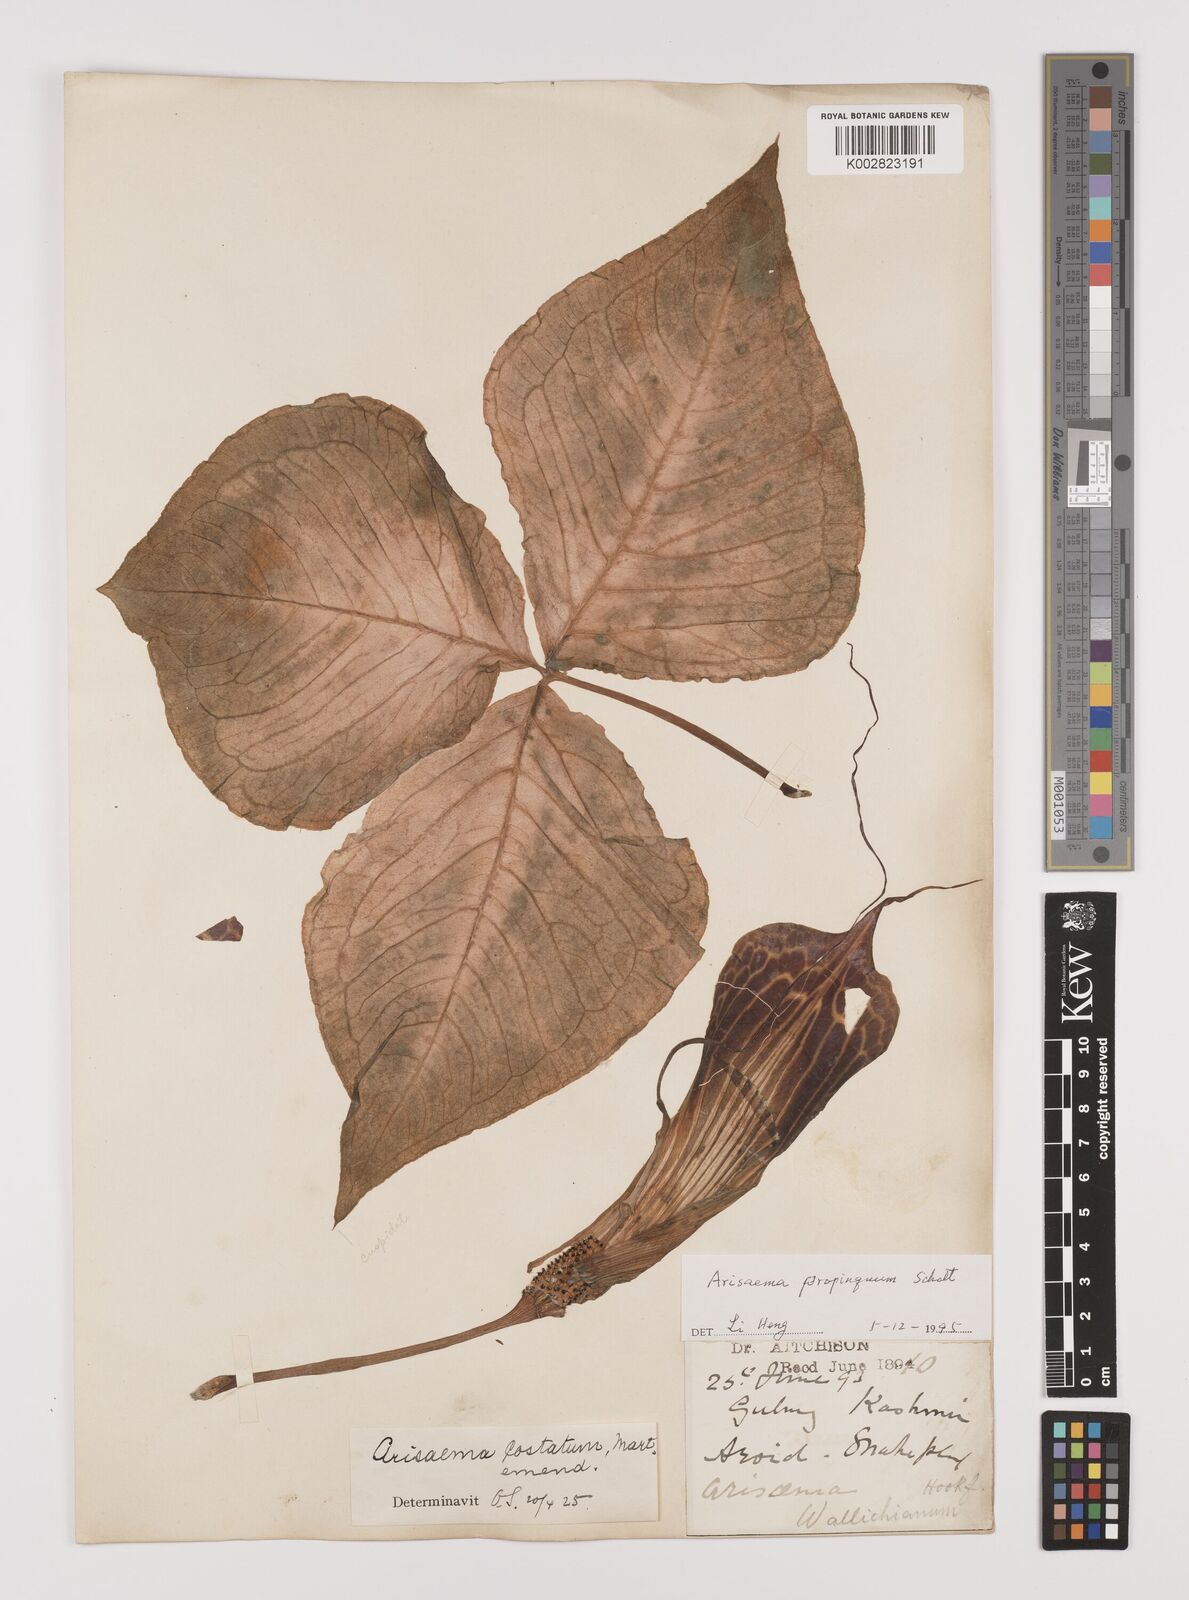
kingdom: Plantae
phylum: Tracheophyta
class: Liliopsida
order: Alismatales
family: Araceae
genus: Arisaema
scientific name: Arisaema propinquum
